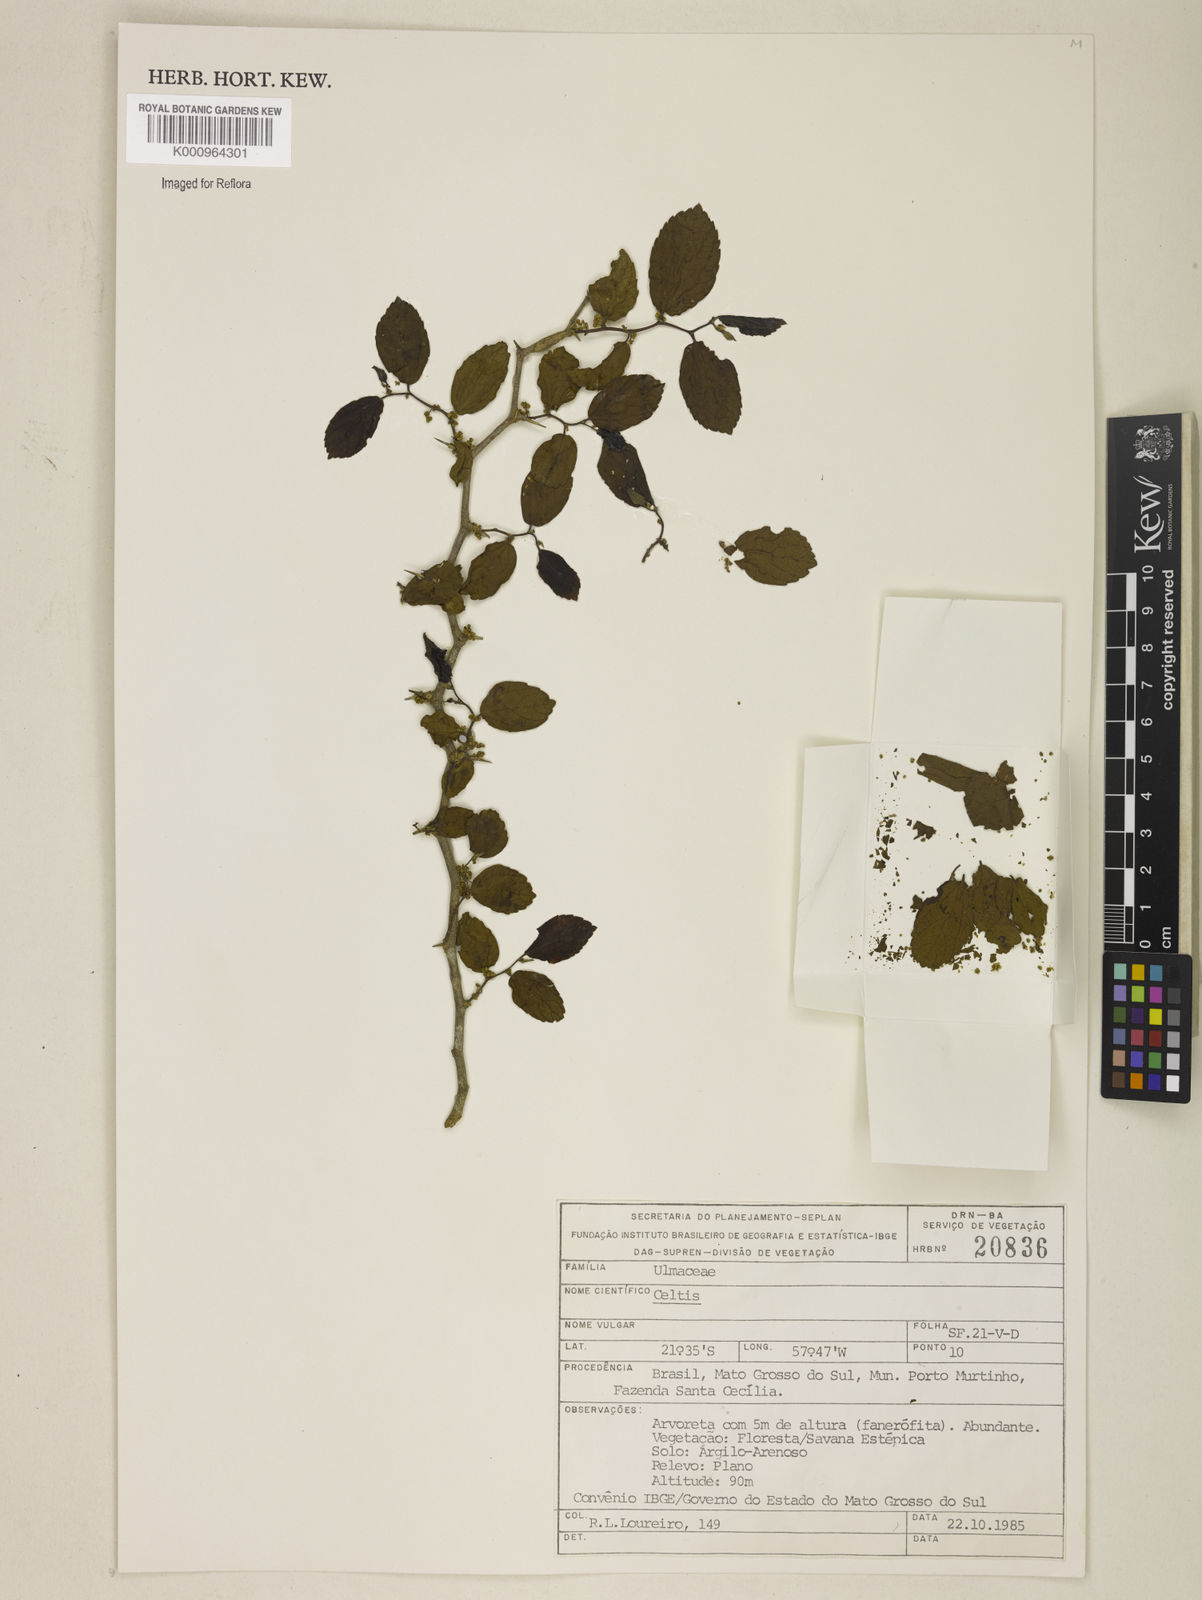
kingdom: Plantae
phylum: Tracheophyta
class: Magnoliopsida
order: Rosales
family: Cannabaceae
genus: Celtis
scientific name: Celtis
